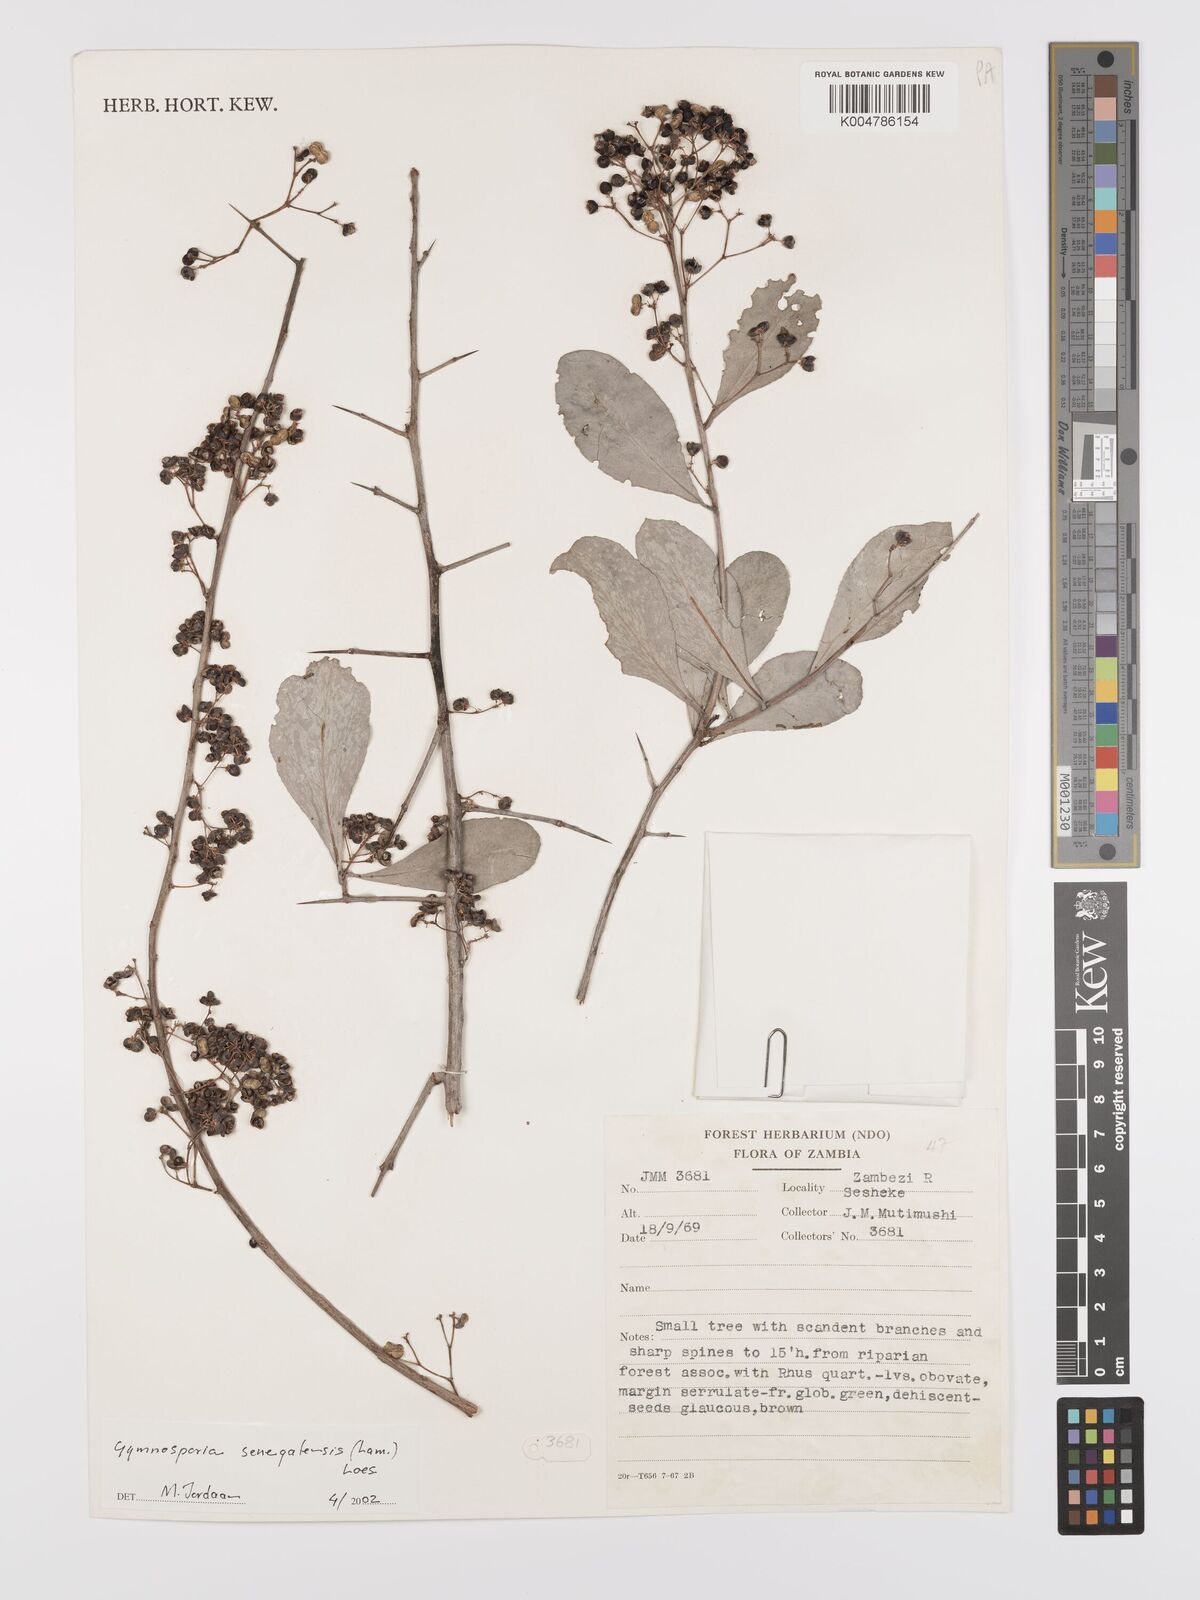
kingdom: Plantae
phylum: Tracheophyta
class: Magnoliopsida
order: Celastrales
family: Celastraceae
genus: Gymnosporia
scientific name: Gymnosporia senegalensis
